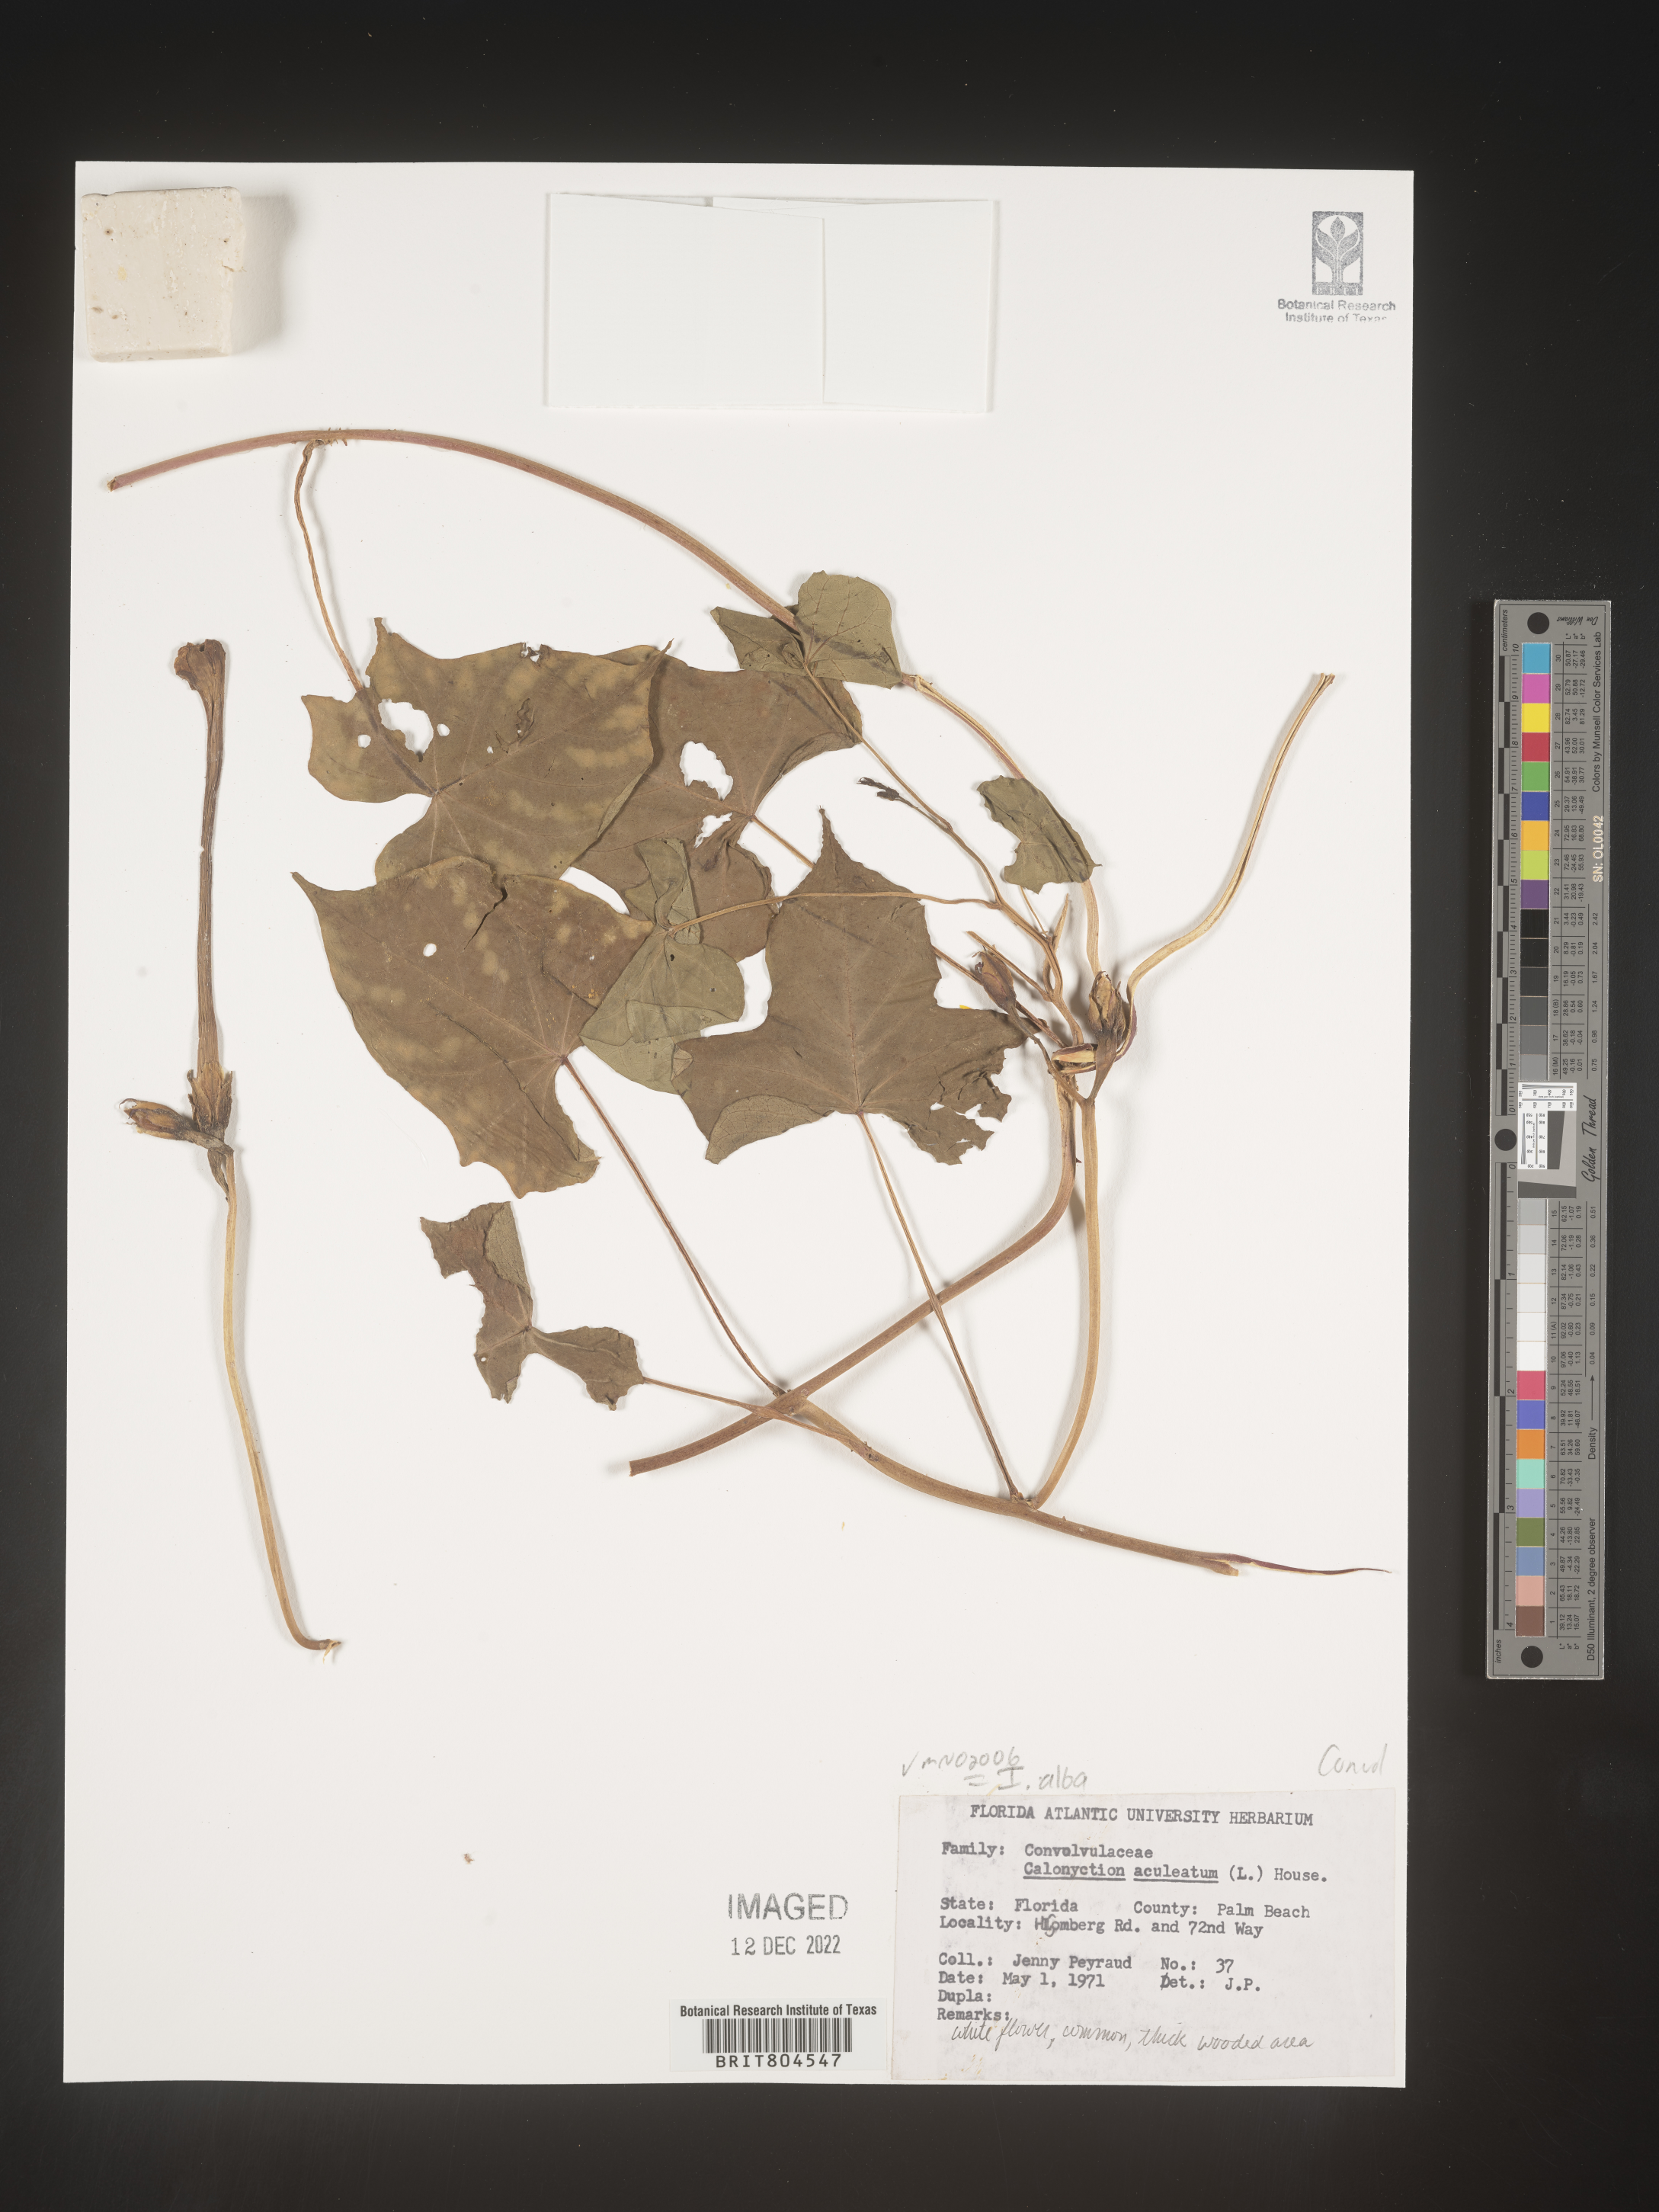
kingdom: Plantae
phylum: Tracheophyta
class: Magnoliopsida
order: Solanales
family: Convolvulaceae
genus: Ipomoea
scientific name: Ipomoea alba
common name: Moonflower
